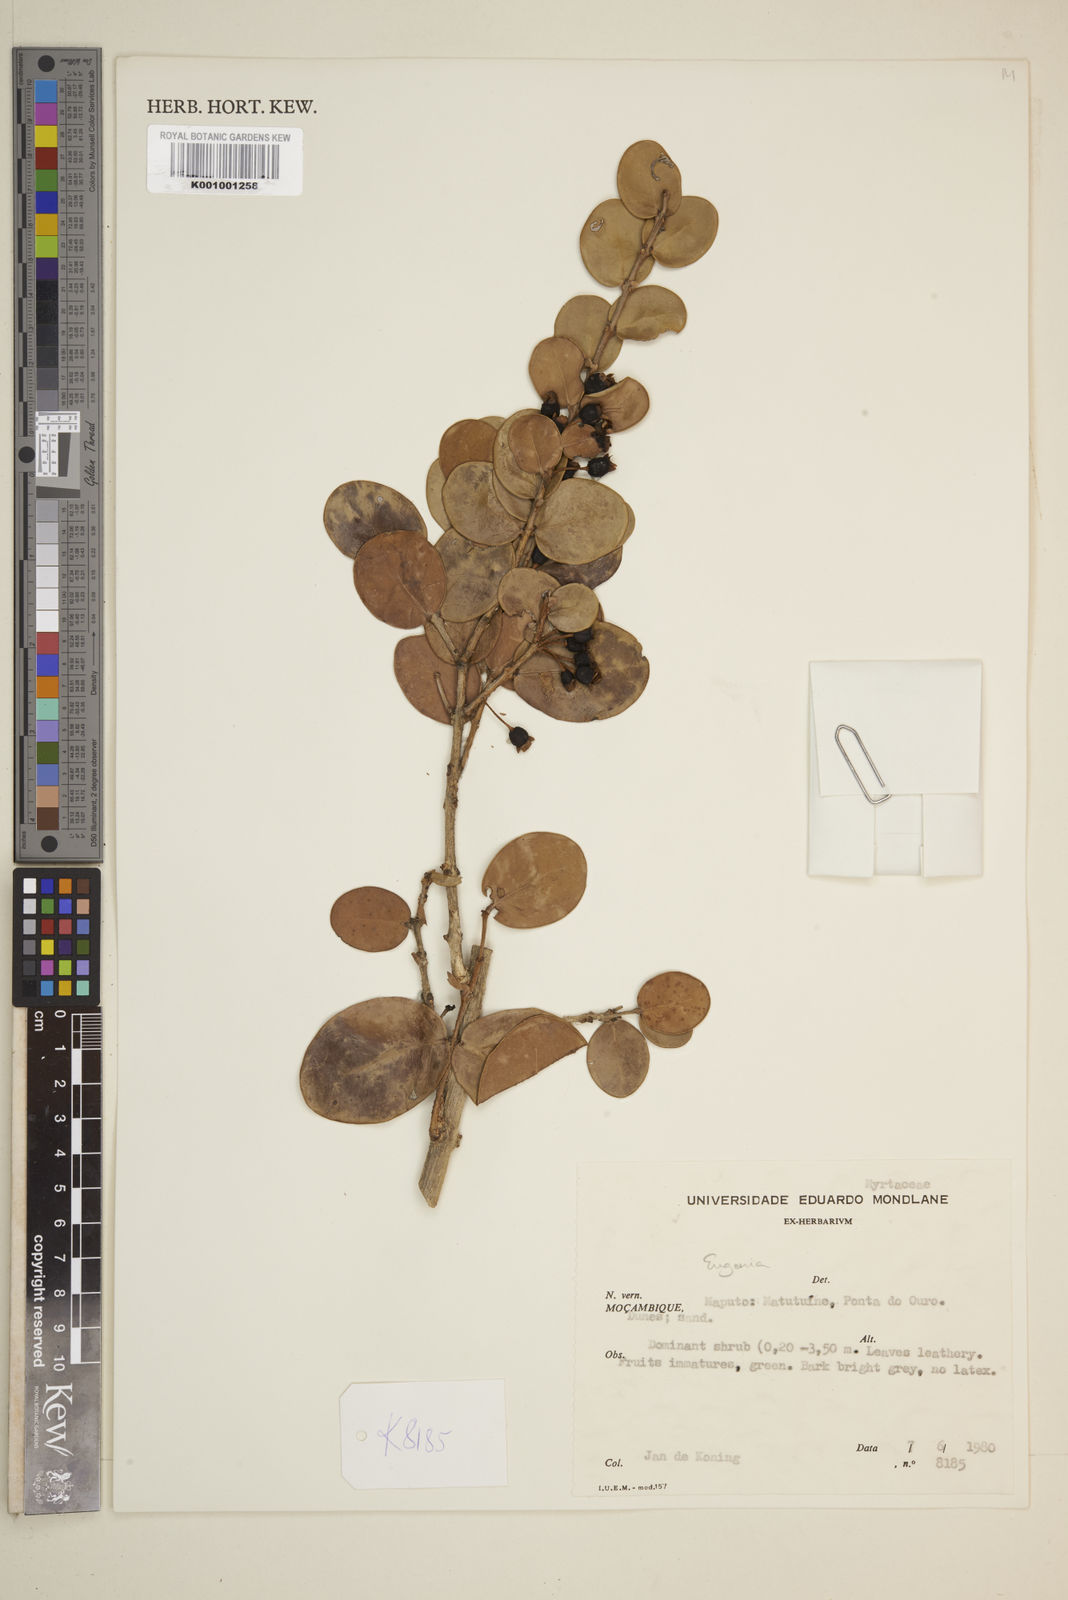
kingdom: Plantae
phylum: Tracheophyta
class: Magnoliopsida
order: Myrtales
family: Myrtaceae
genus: Eugenia
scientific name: Eugenia
